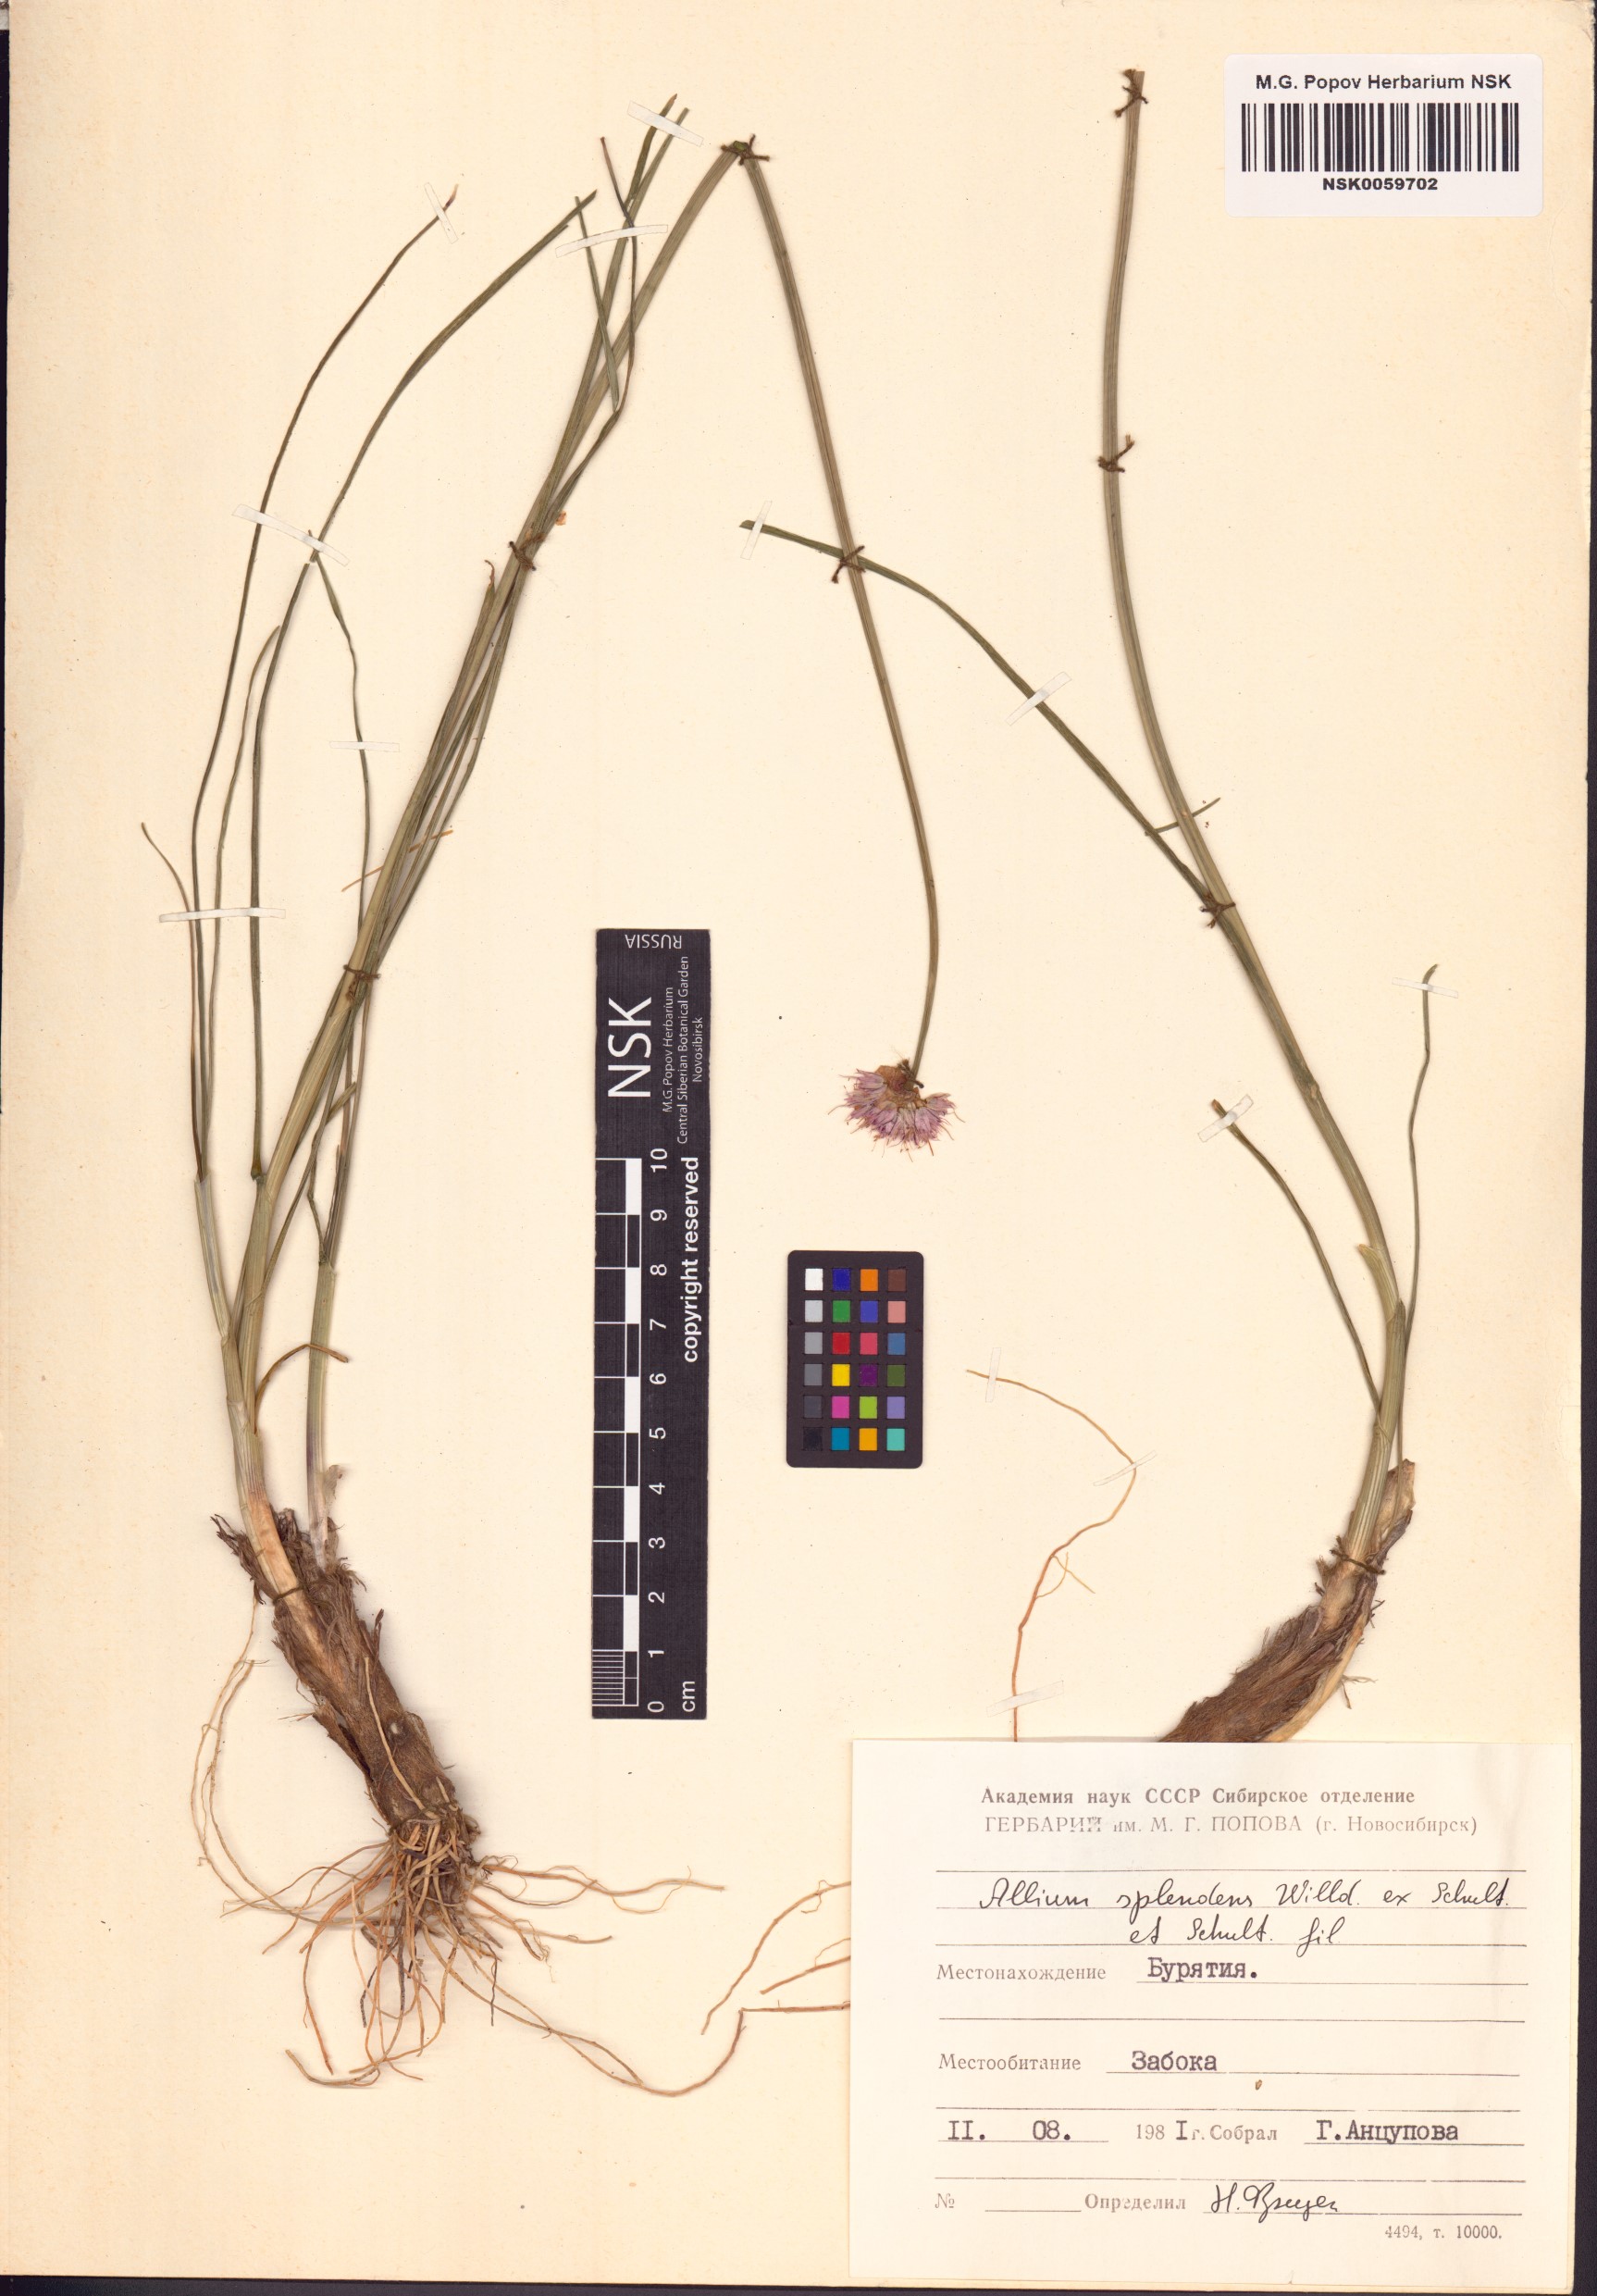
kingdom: Plantae
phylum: Tracheophyta
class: Liliopsida
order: Asparagales
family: Amaryllidaceae
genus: Allium
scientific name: Allium splendens
